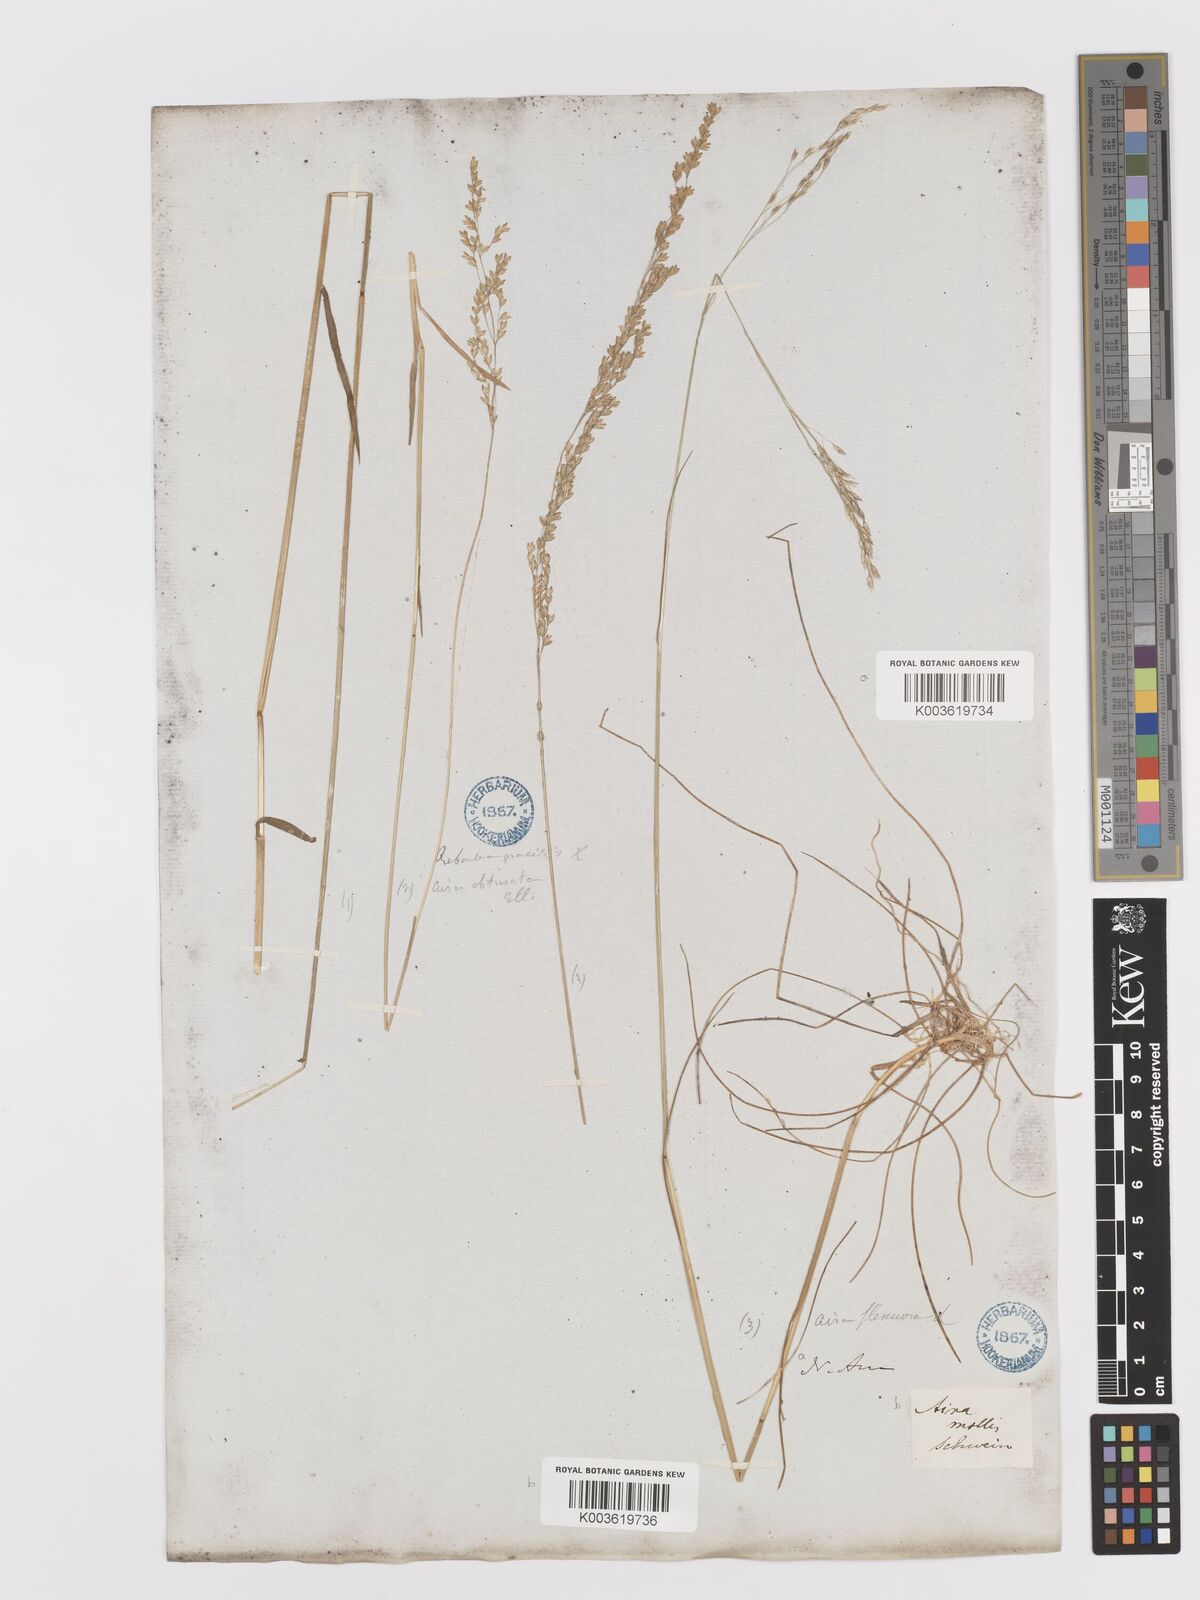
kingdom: Plantae
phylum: Tracheophyta
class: Liliopsida
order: Poales
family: Poaceae
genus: Sphenopholis
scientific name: Sphenopholis nitida
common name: Shiny wedgegrass
